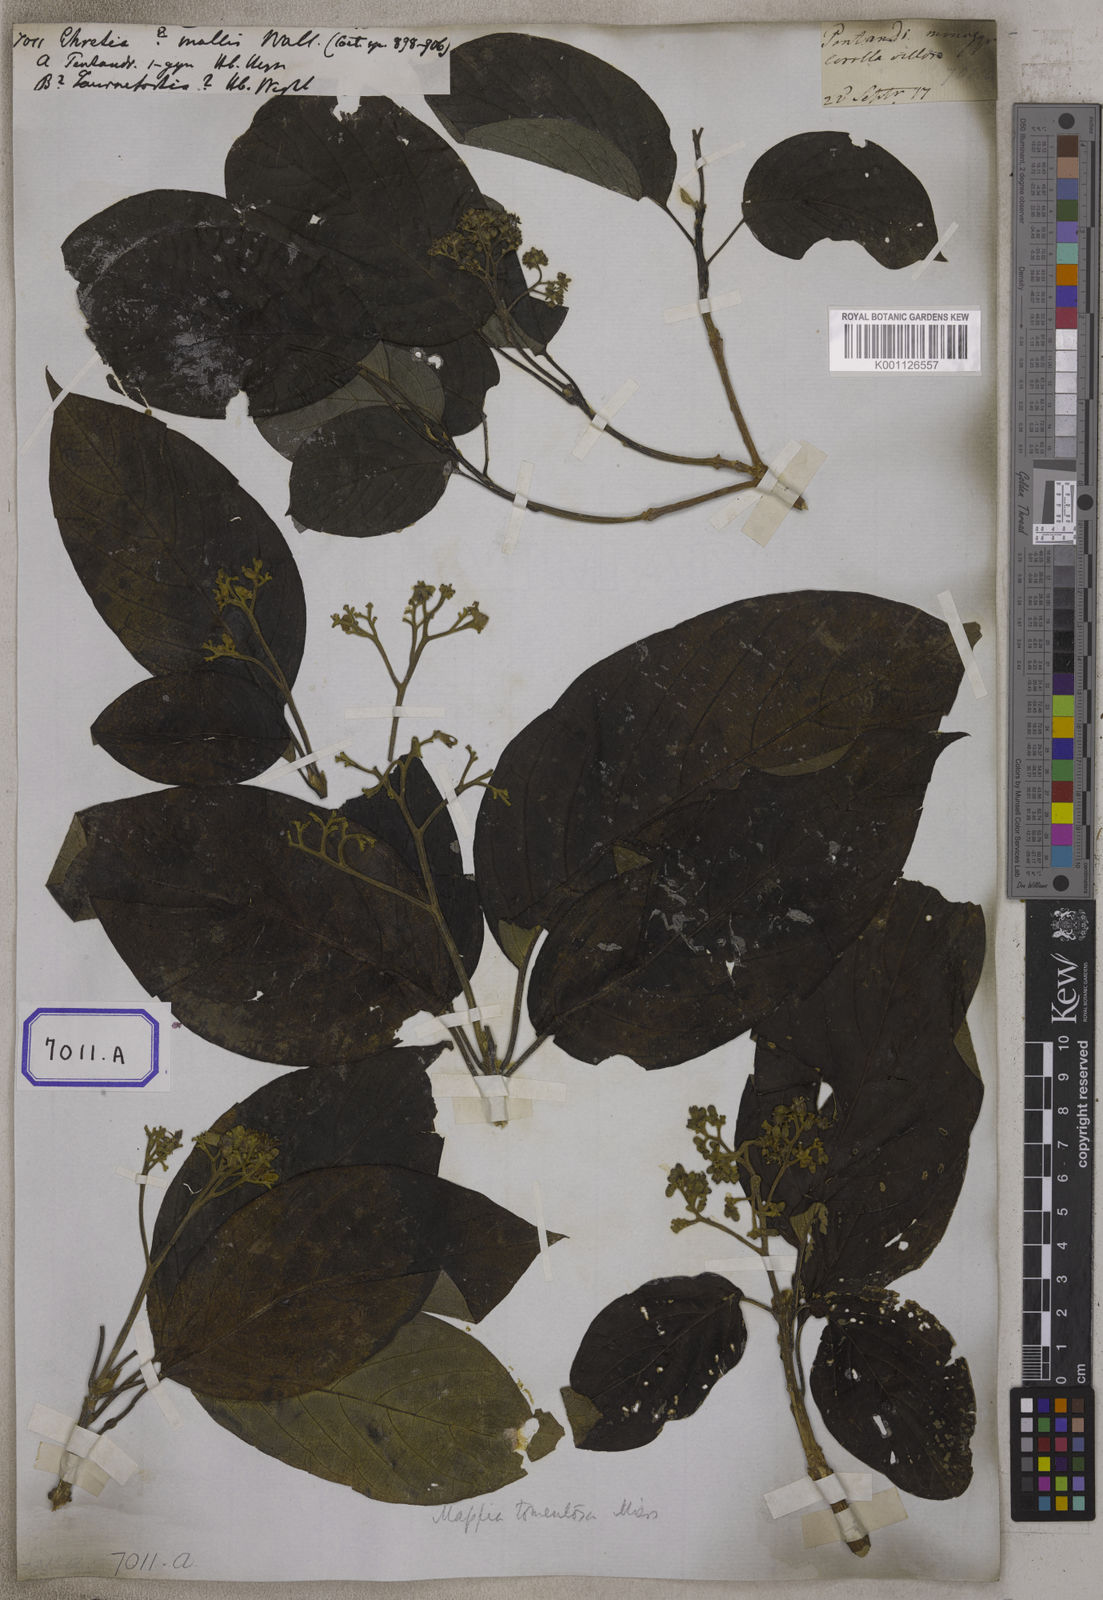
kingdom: Plantae
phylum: Tracheophyta
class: Magnoliopsida
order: Boraginales
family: Ehretiaceae
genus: Ehretia
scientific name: Ehretia
